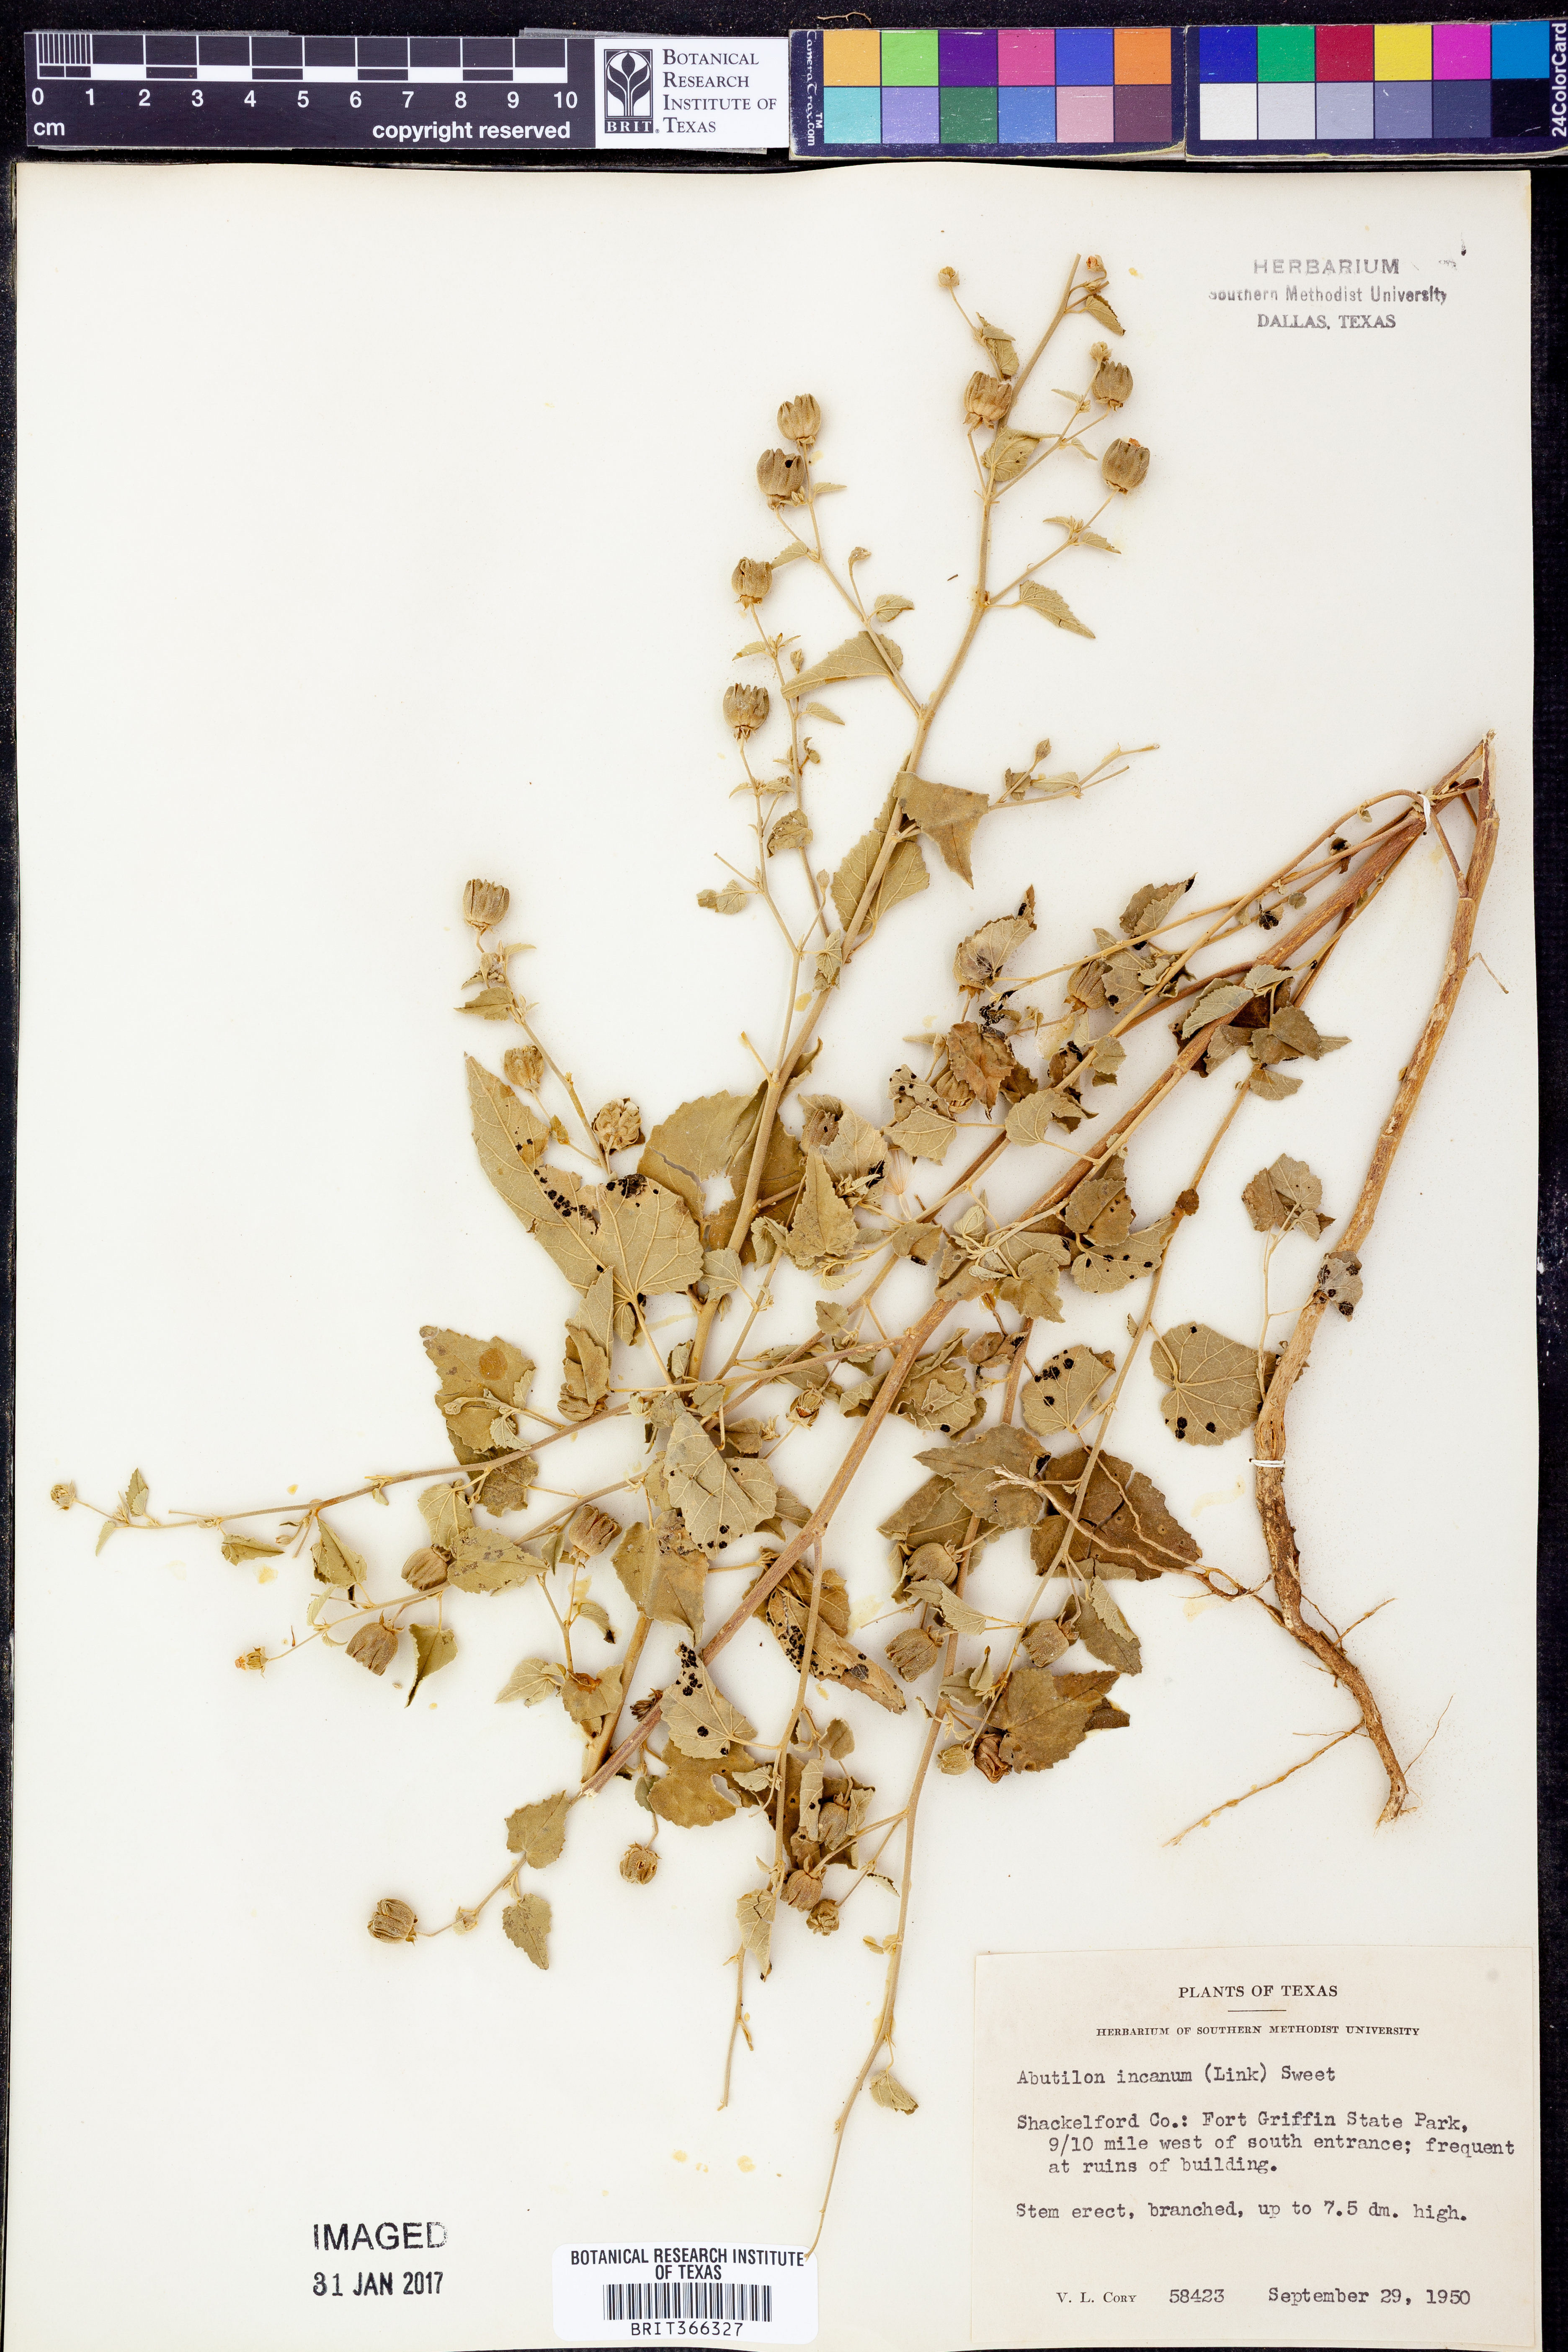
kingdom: Plantae
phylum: Tracheophyta
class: Magnoliopsida
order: Malvales
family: Malvaceae
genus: Abutilon
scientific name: Abutilon incanum
